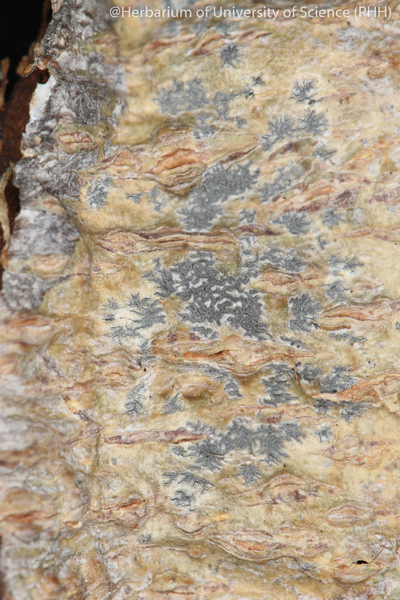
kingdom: Fungi
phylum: Ascomycota
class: Lecanoromycetes
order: Ostropales
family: Graphidaceae
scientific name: Graphidaceae
